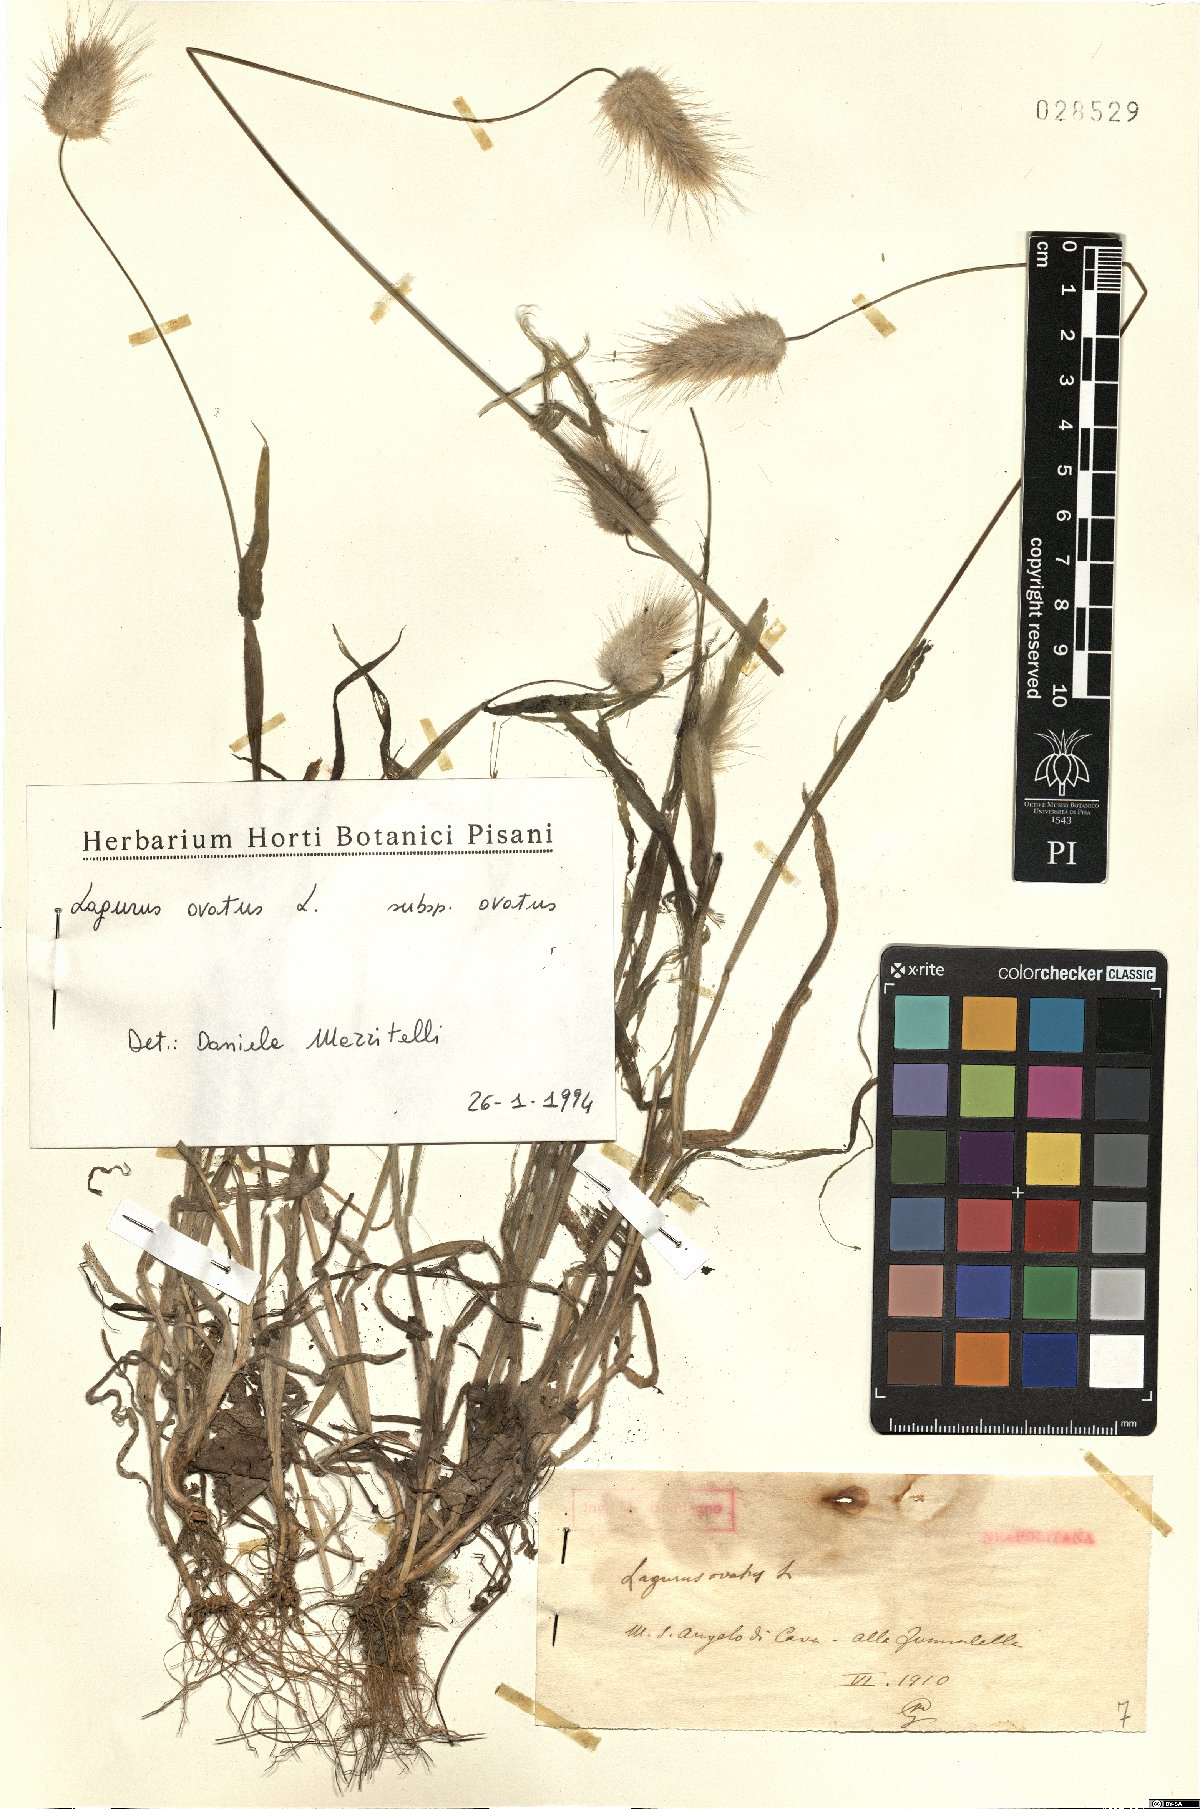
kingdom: Plantae
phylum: Tracheophyta
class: Liliopsida
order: Poales
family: Poaceae
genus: Lagurus
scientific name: Lagurus ovatus
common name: Hare's-tail
